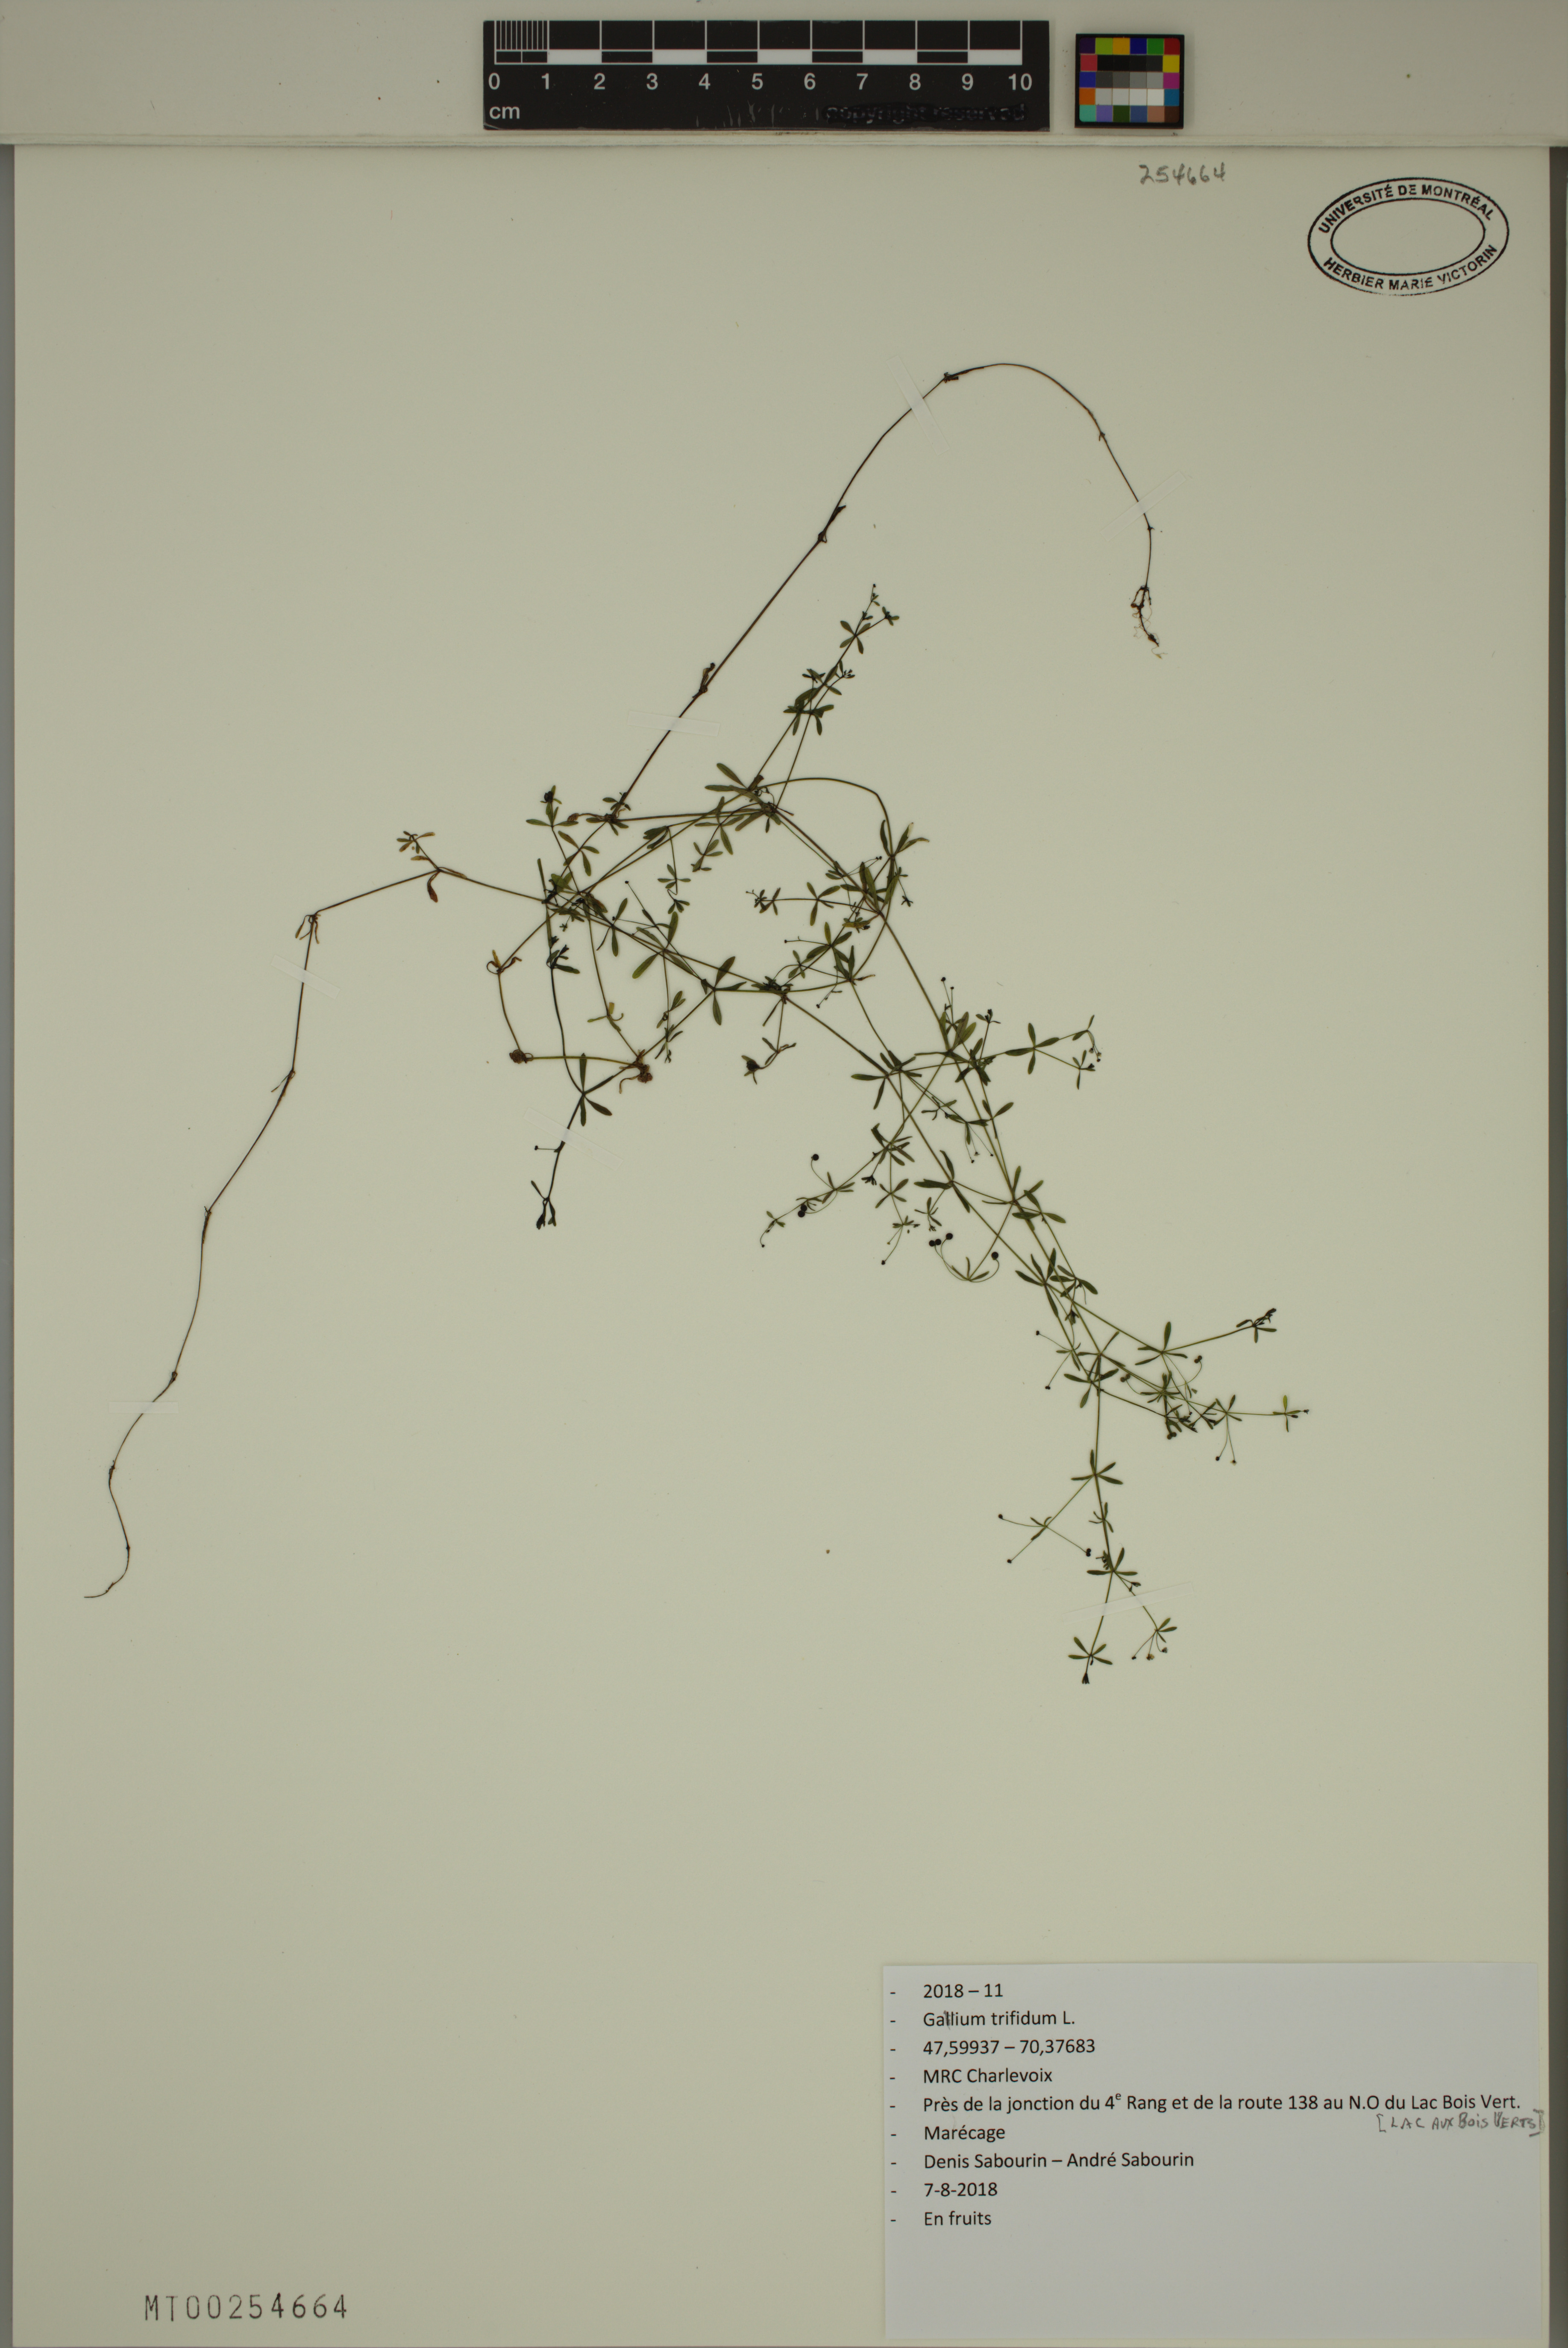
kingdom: Plantae
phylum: Tracheophyta
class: Magnoliopsida
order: Gentianales
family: Rubiaceae
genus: Galium
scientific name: Galium trifidum
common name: Small bedstraw
